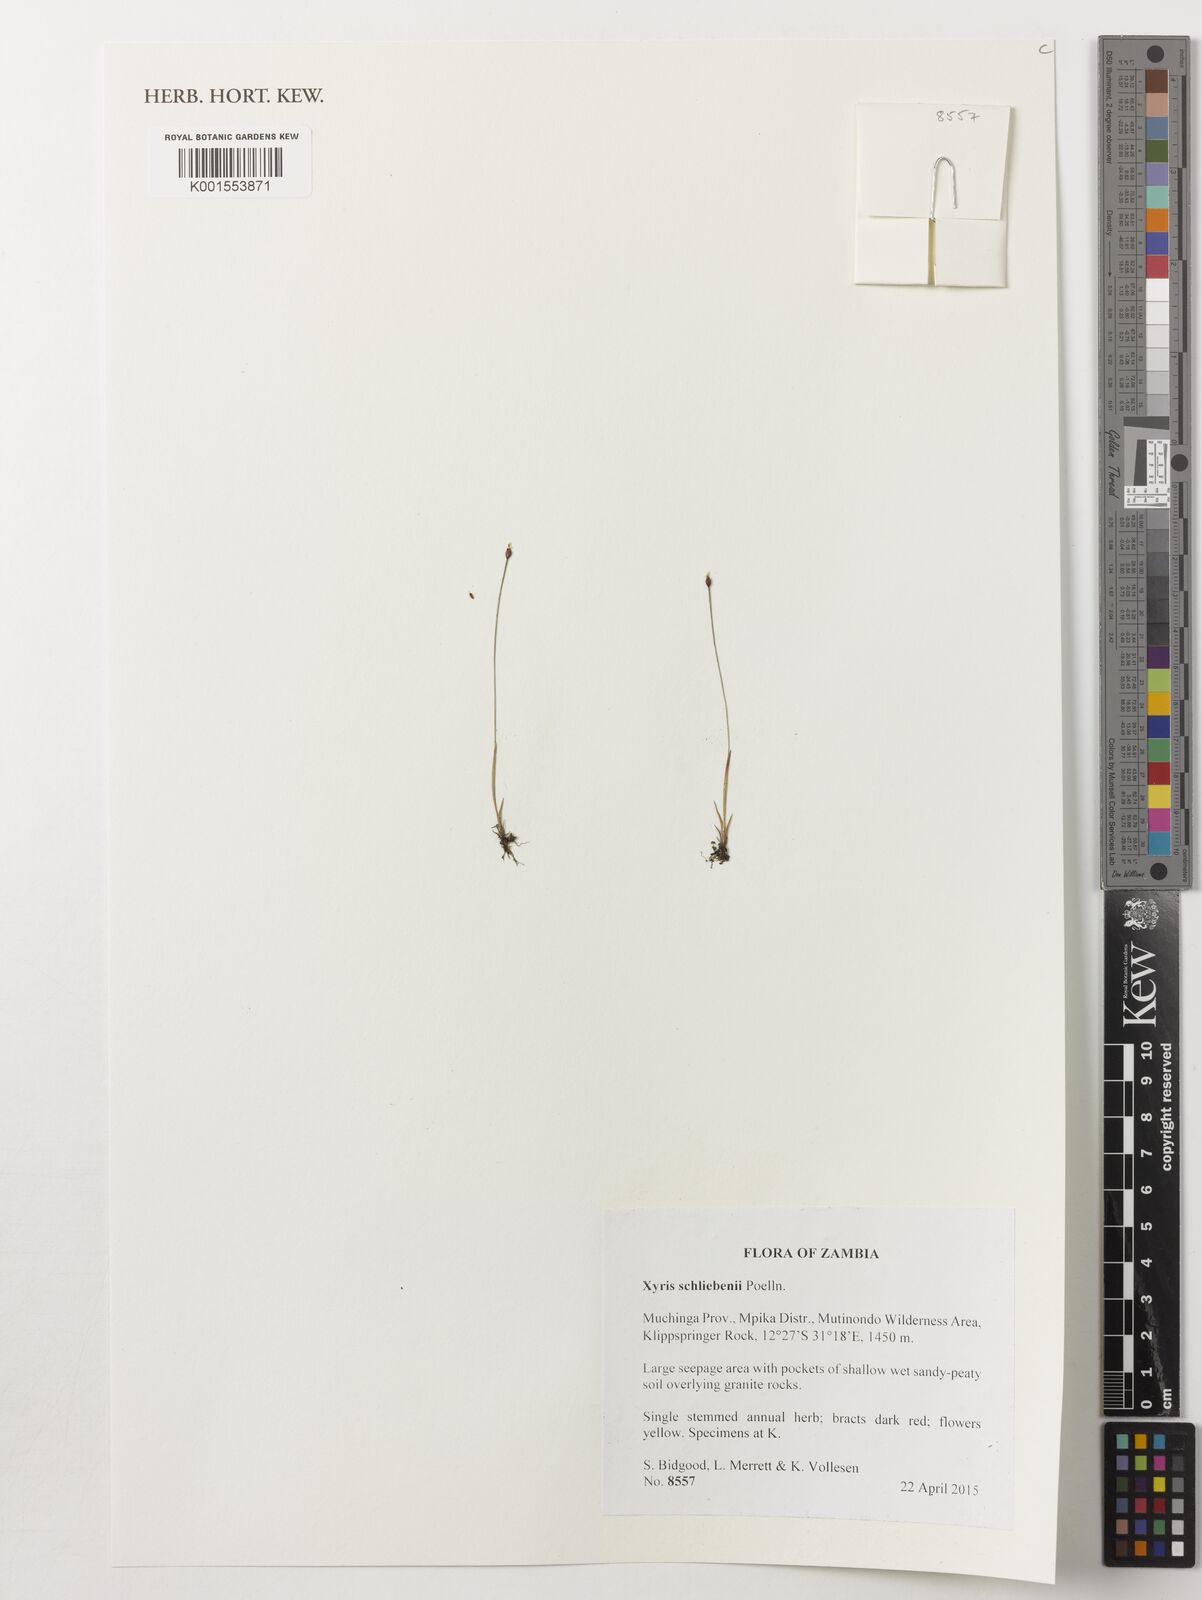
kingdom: Plantae
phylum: Tracheophyta
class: Liliopsida
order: Poales
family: Xyridaceae
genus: Xyris
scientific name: Xyris schliebenii
